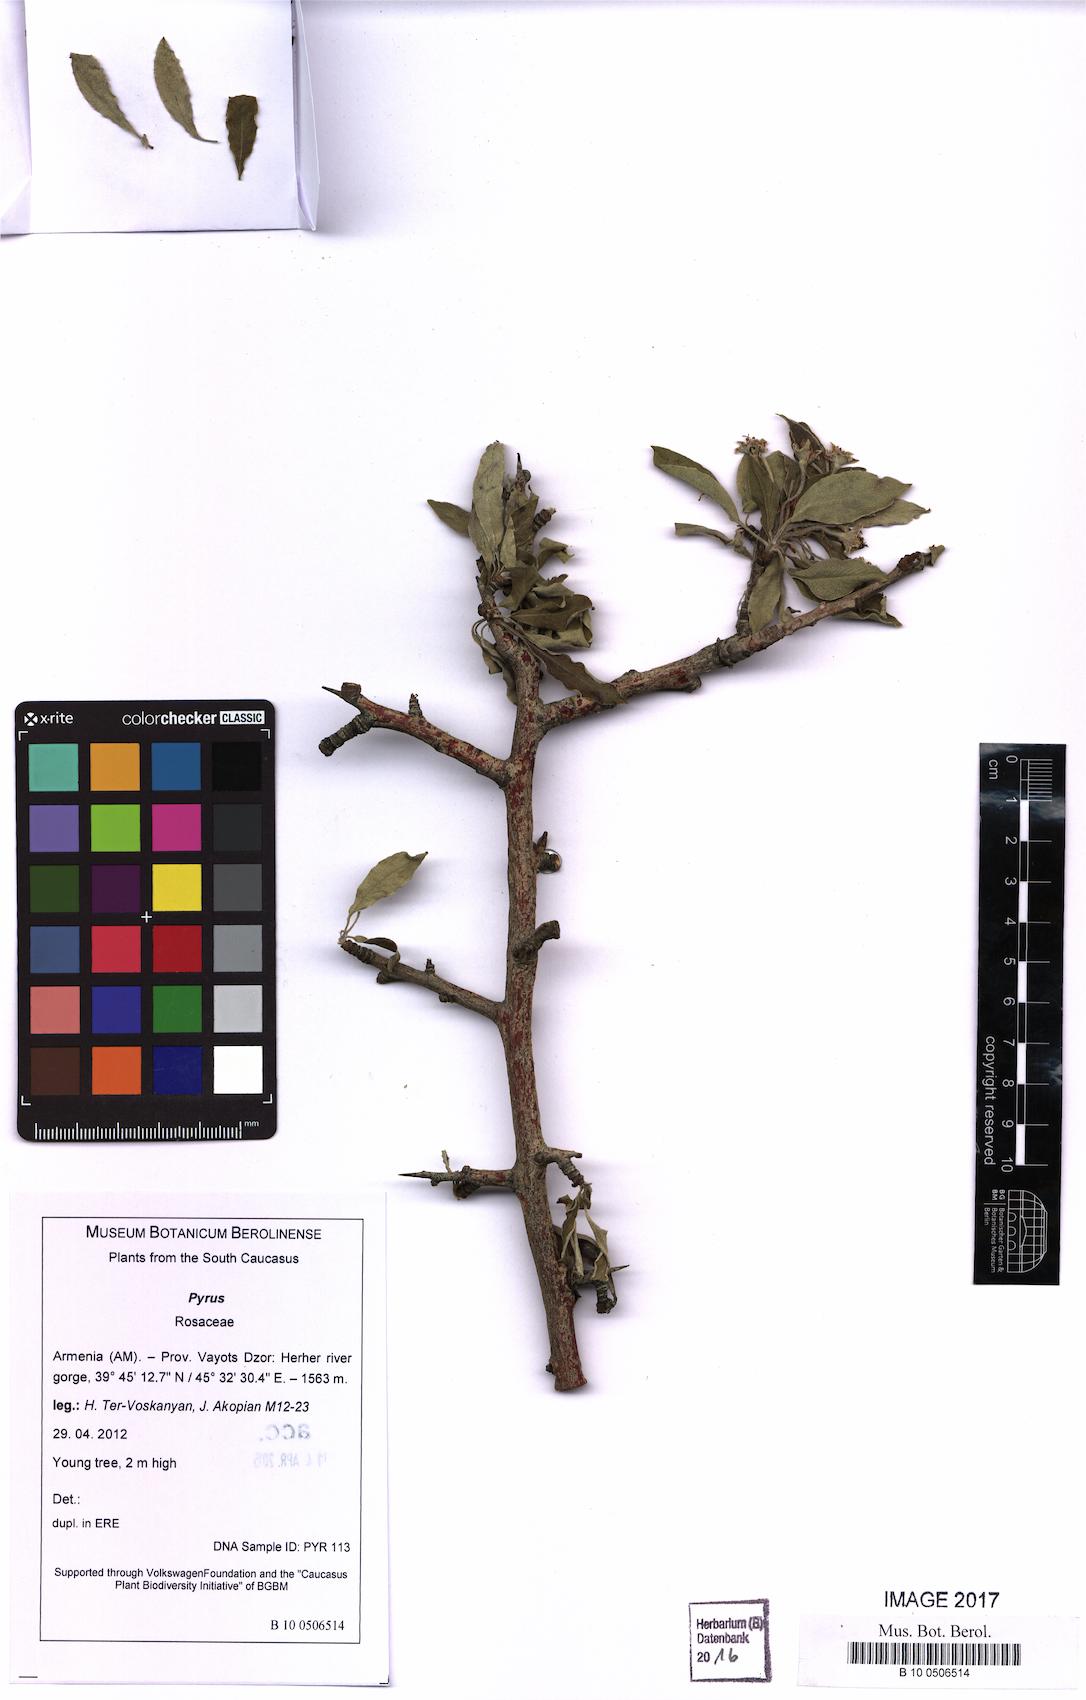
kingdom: Plantae
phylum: Tracheophyta
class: Magnoliopsida
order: Rosales
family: Rosaceae
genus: Pyrus
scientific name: Pyrus
